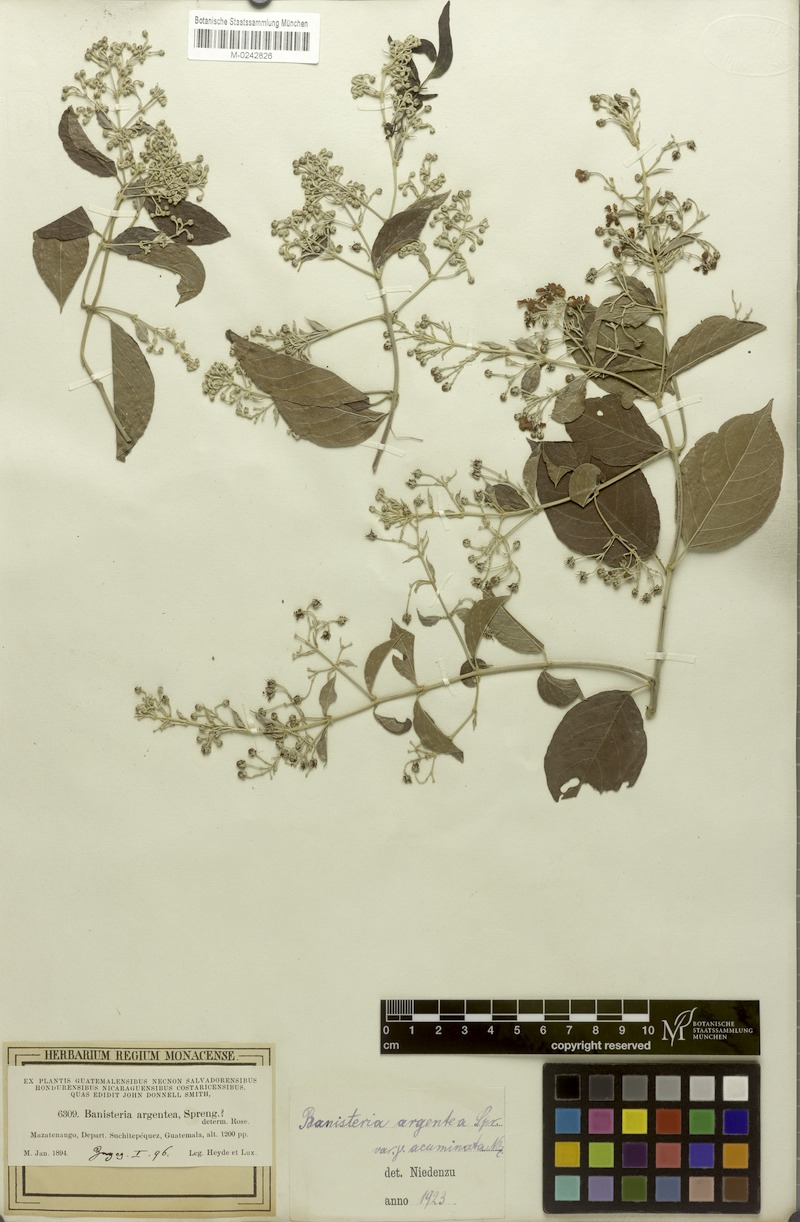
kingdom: Plantae
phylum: Tracheophyta
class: Magnoliopsida
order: Malpighiales
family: Malpighiaceae
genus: Banisteriopsis
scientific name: Banisteriopsis muricata
